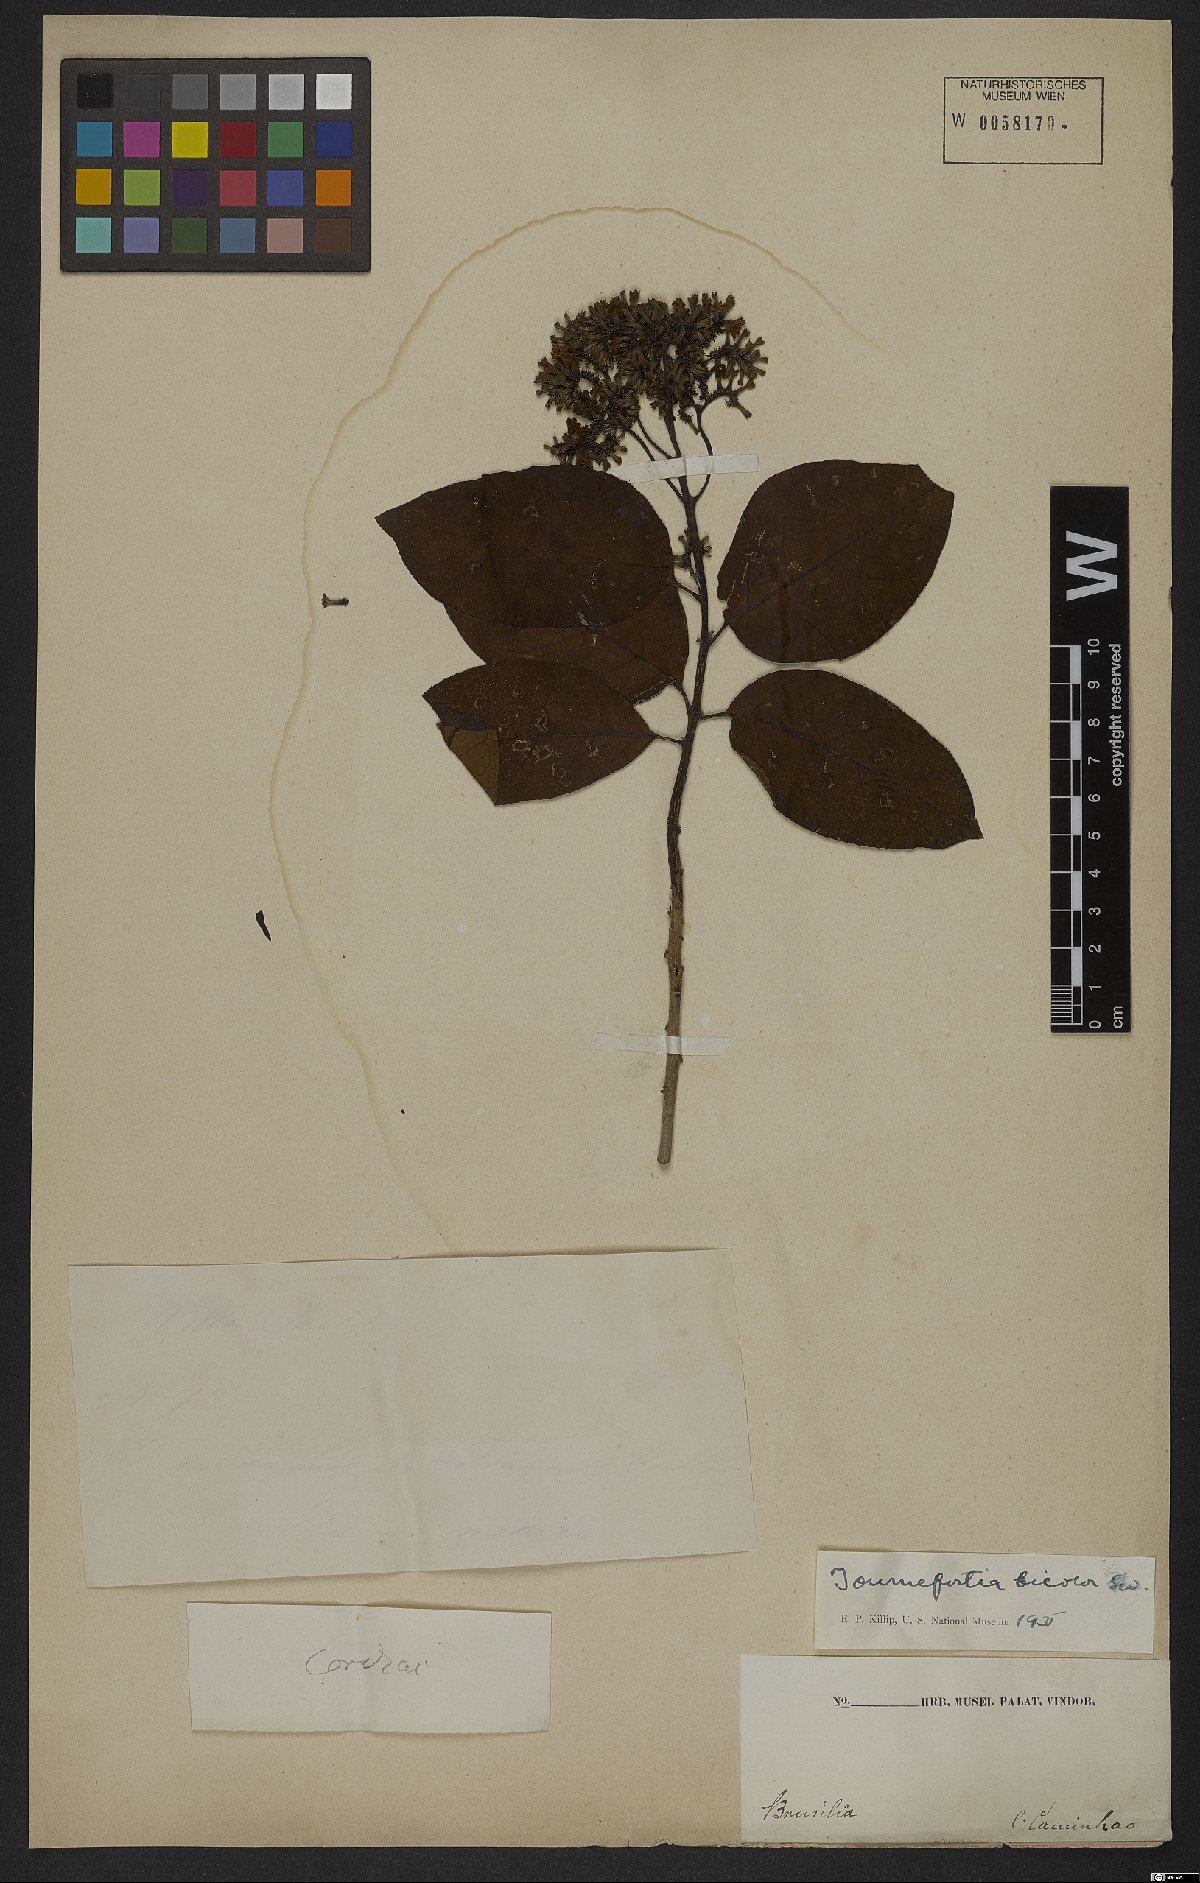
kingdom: Plantae
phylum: Tracheophyta
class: Magnoliopsida
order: Boraginales
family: Heliotropiaceae
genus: Heliotropium
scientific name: Heliotropium verdcourtii
